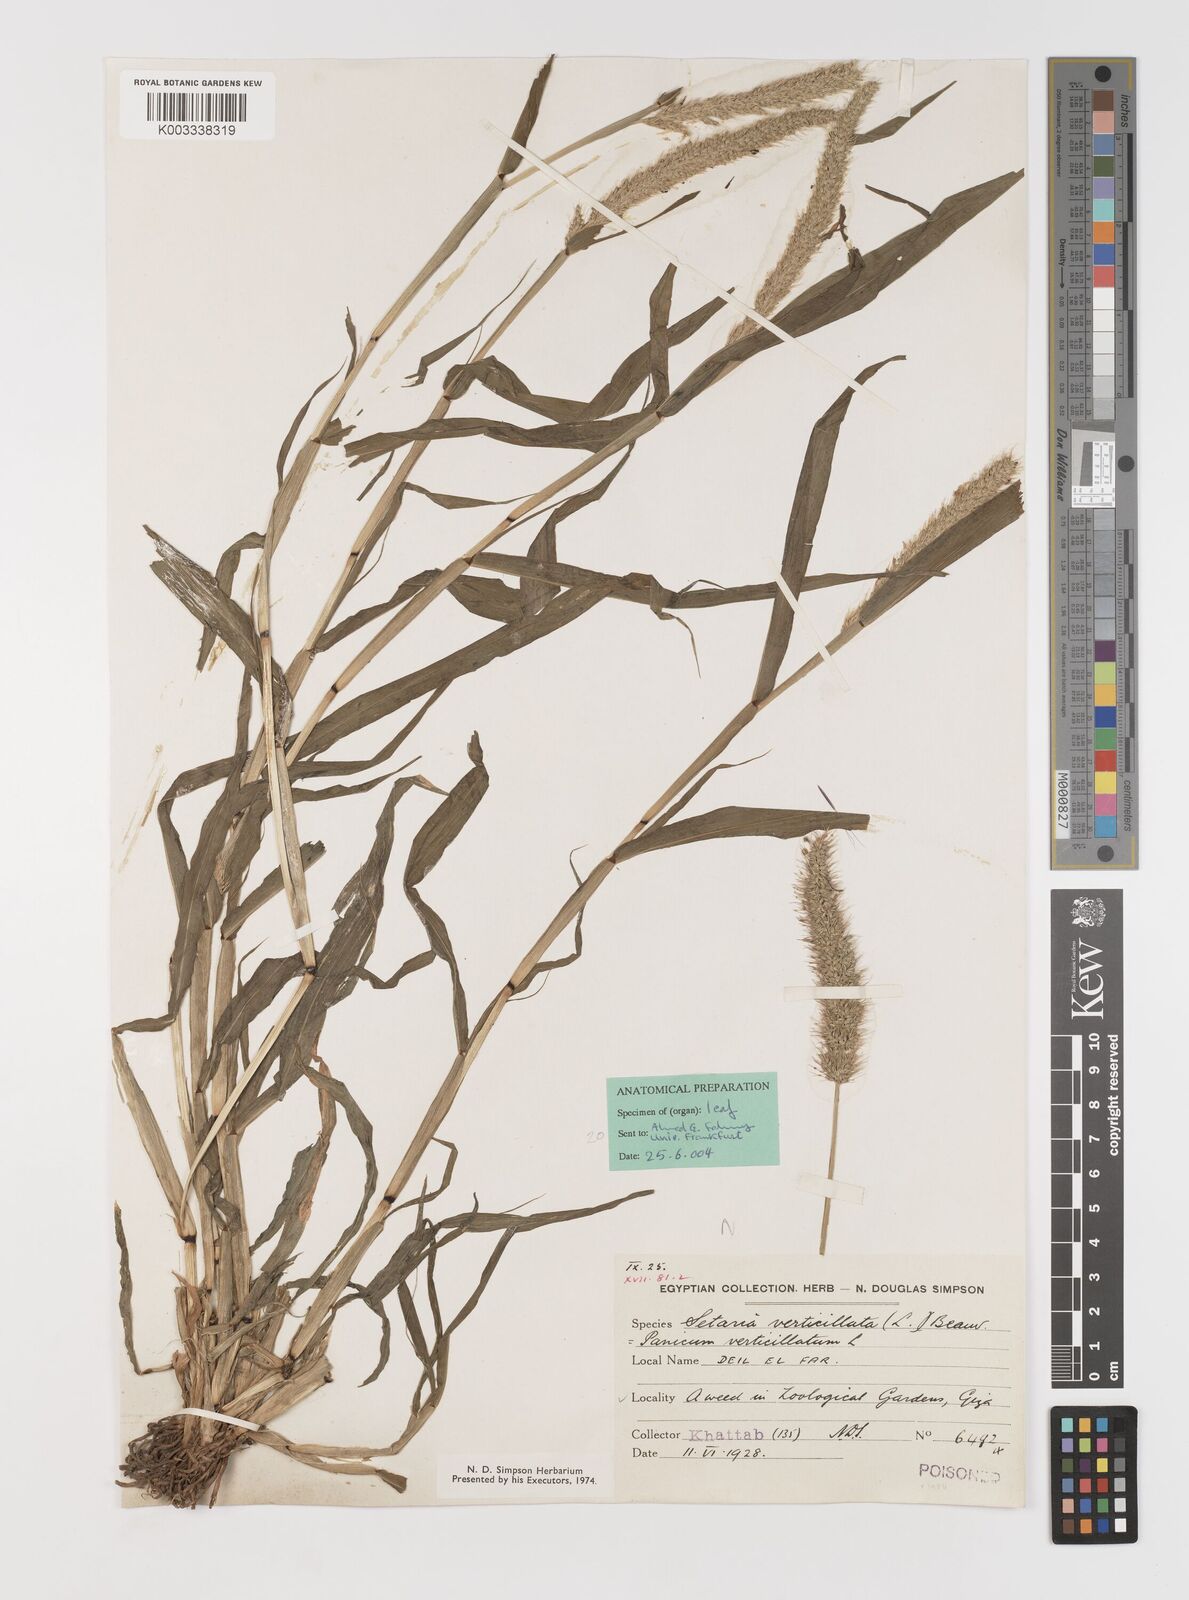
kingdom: Plantae
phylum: Tracheophyta
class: Liliopsida
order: Poales
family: Poaceae
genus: Setaria
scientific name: Setaria verticillata
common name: Hooked bristlegrass
